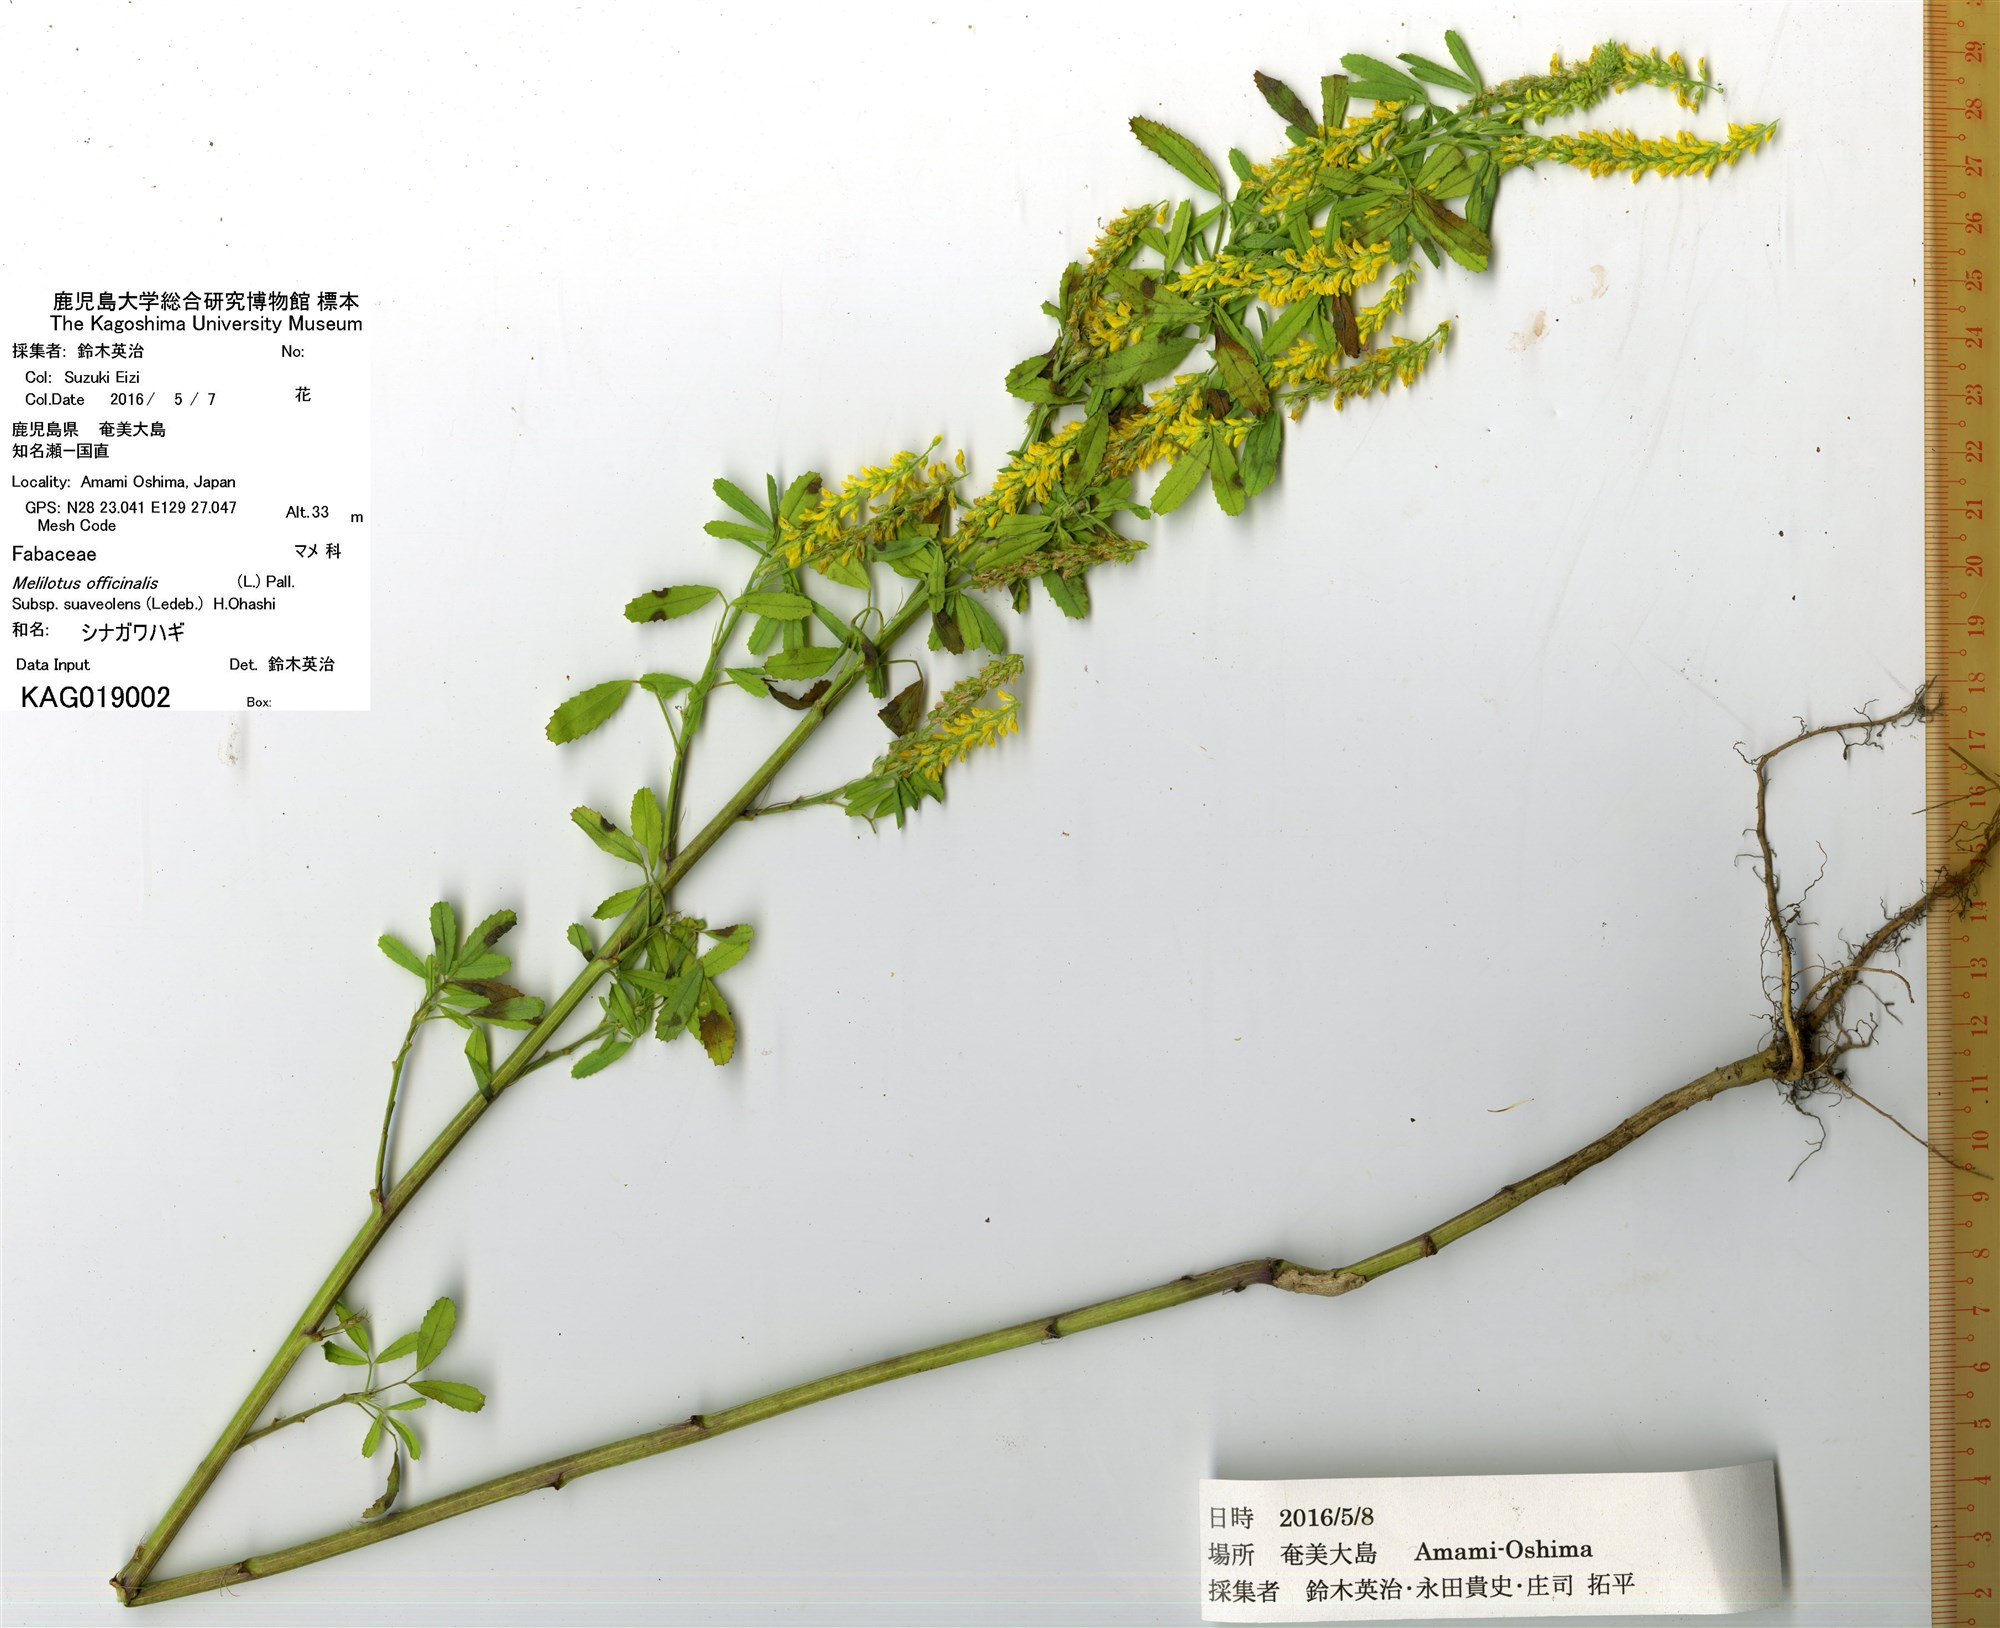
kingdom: Plantae
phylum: Tracheophyta
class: Magnoliopsida
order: Fabales
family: Fabaceae
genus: Melilotus
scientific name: Melilotus suaveolens
